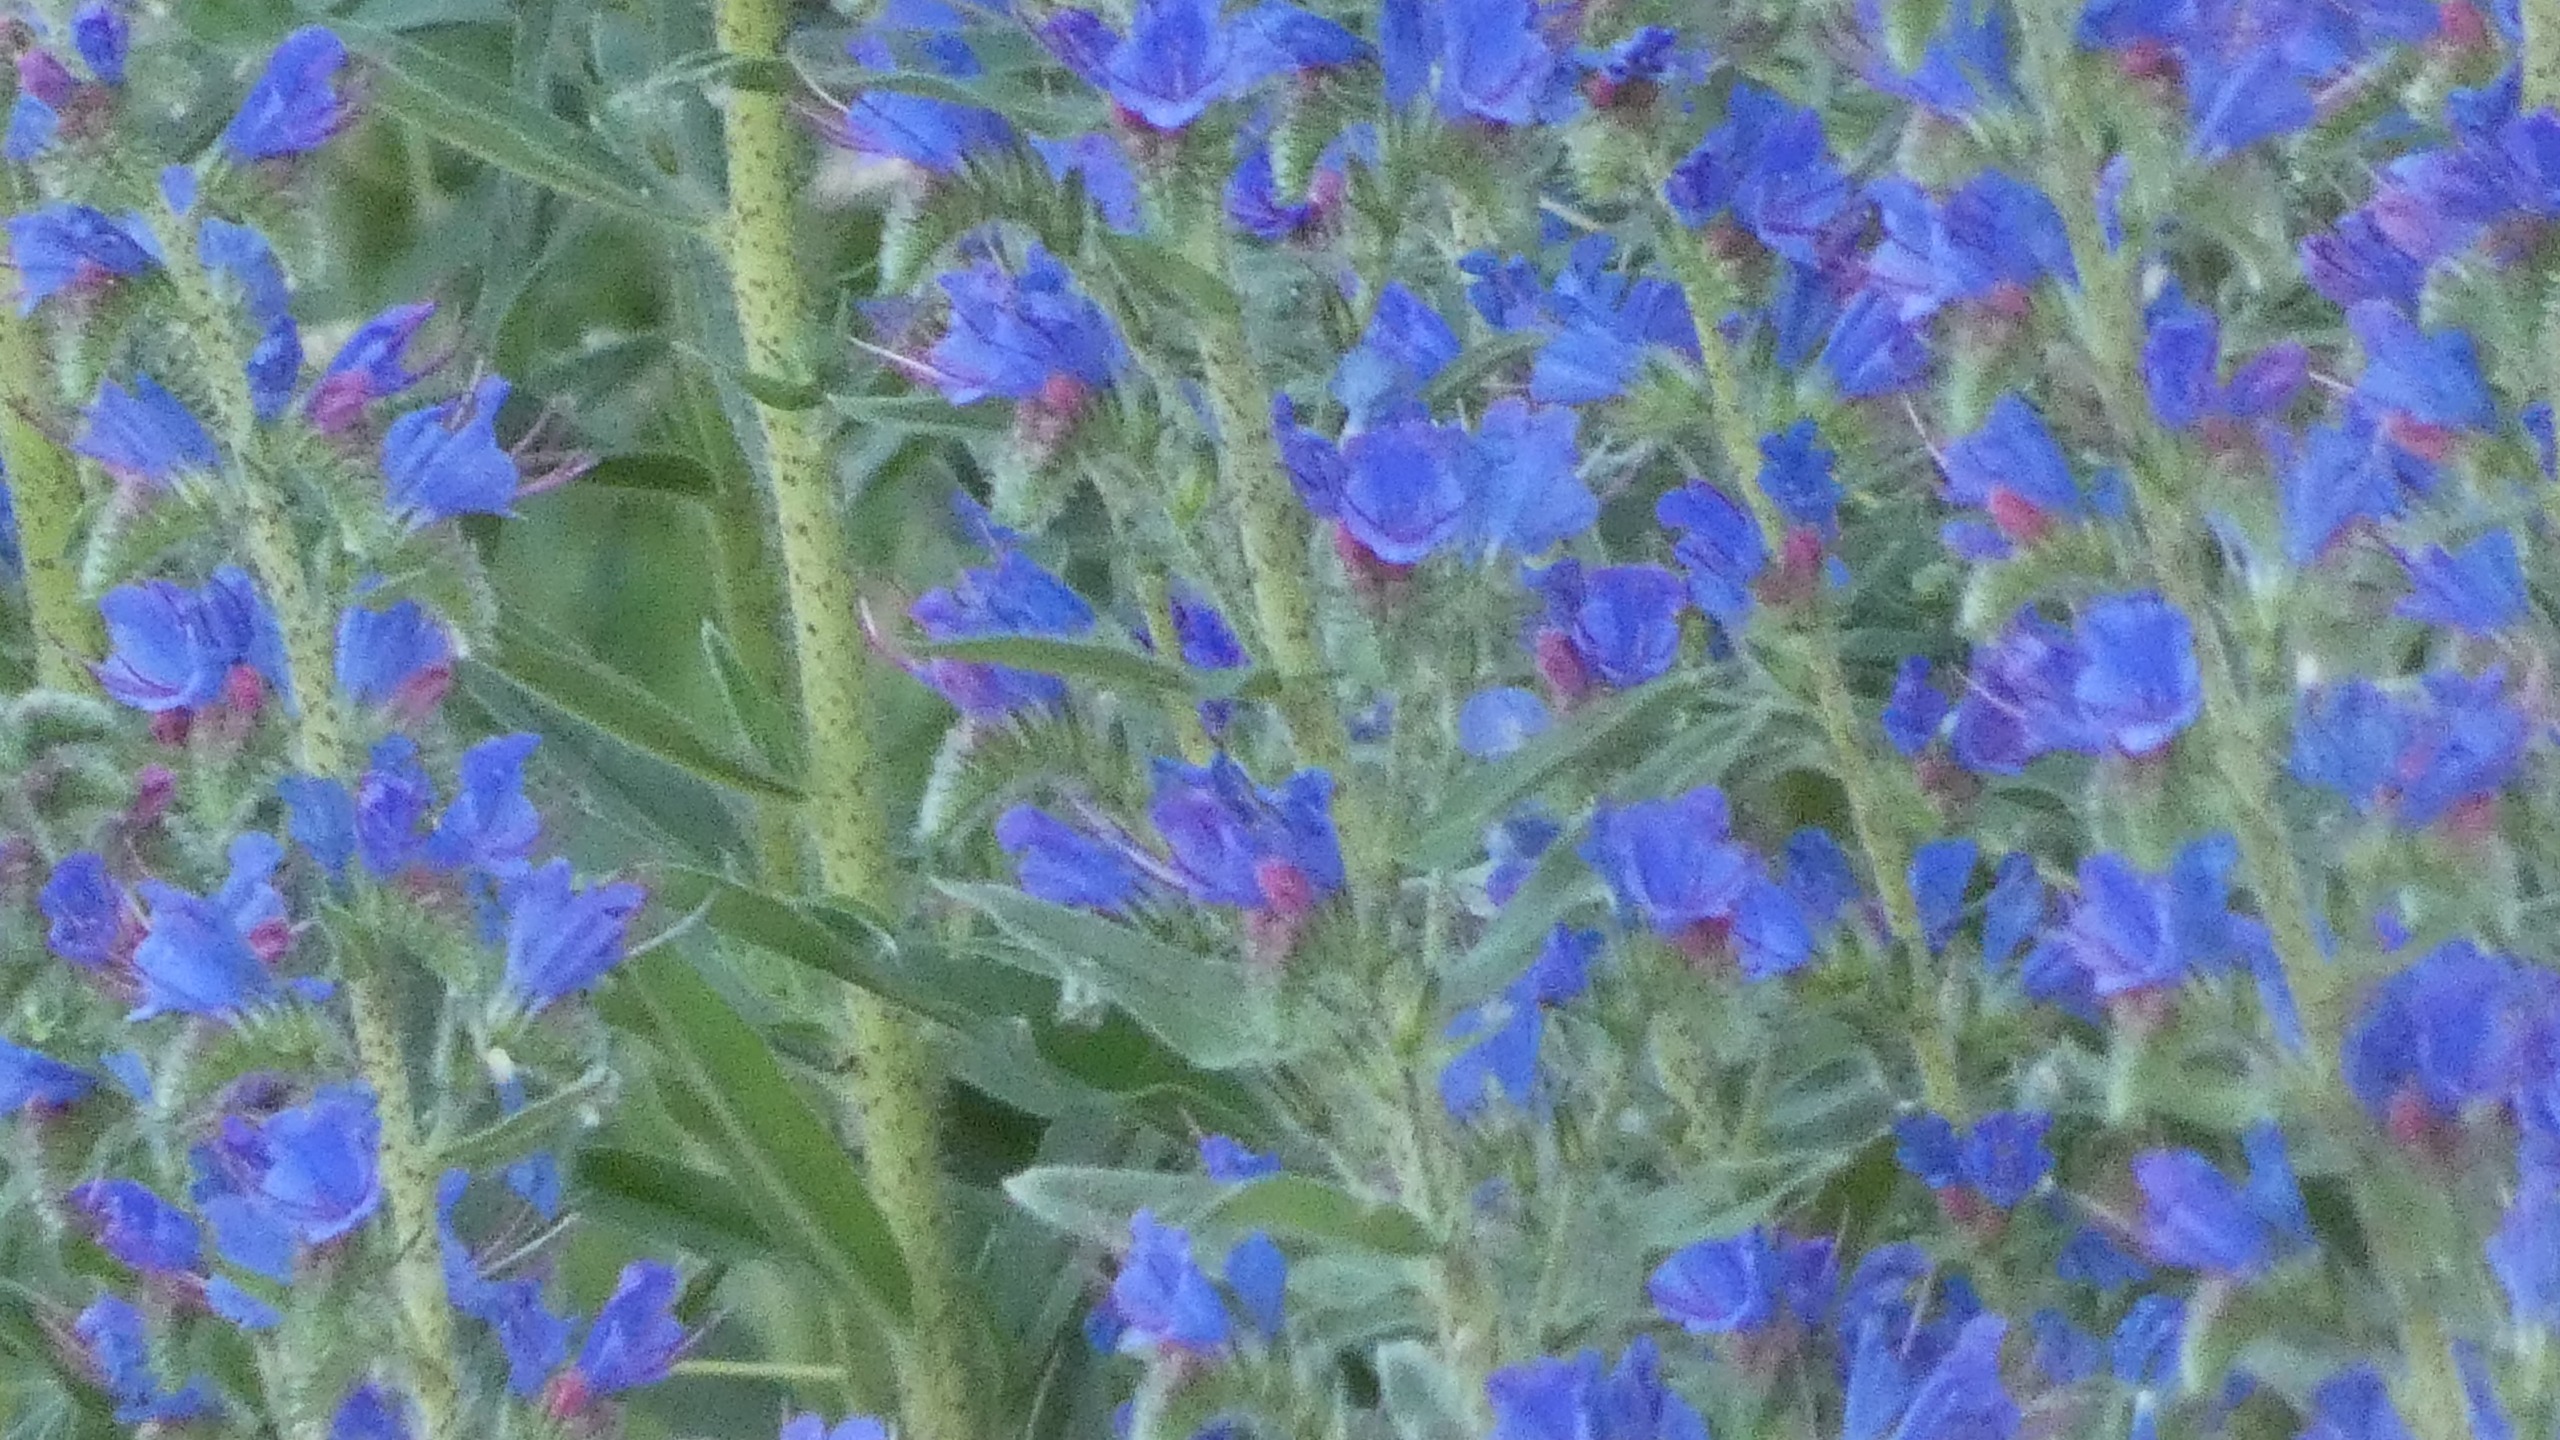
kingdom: Plantae
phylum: Tracheophyta
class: Magnoliopsida
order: Boraginales
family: Boraginaceae
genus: Echium
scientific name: Echium vulgare
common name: Slangehoved
